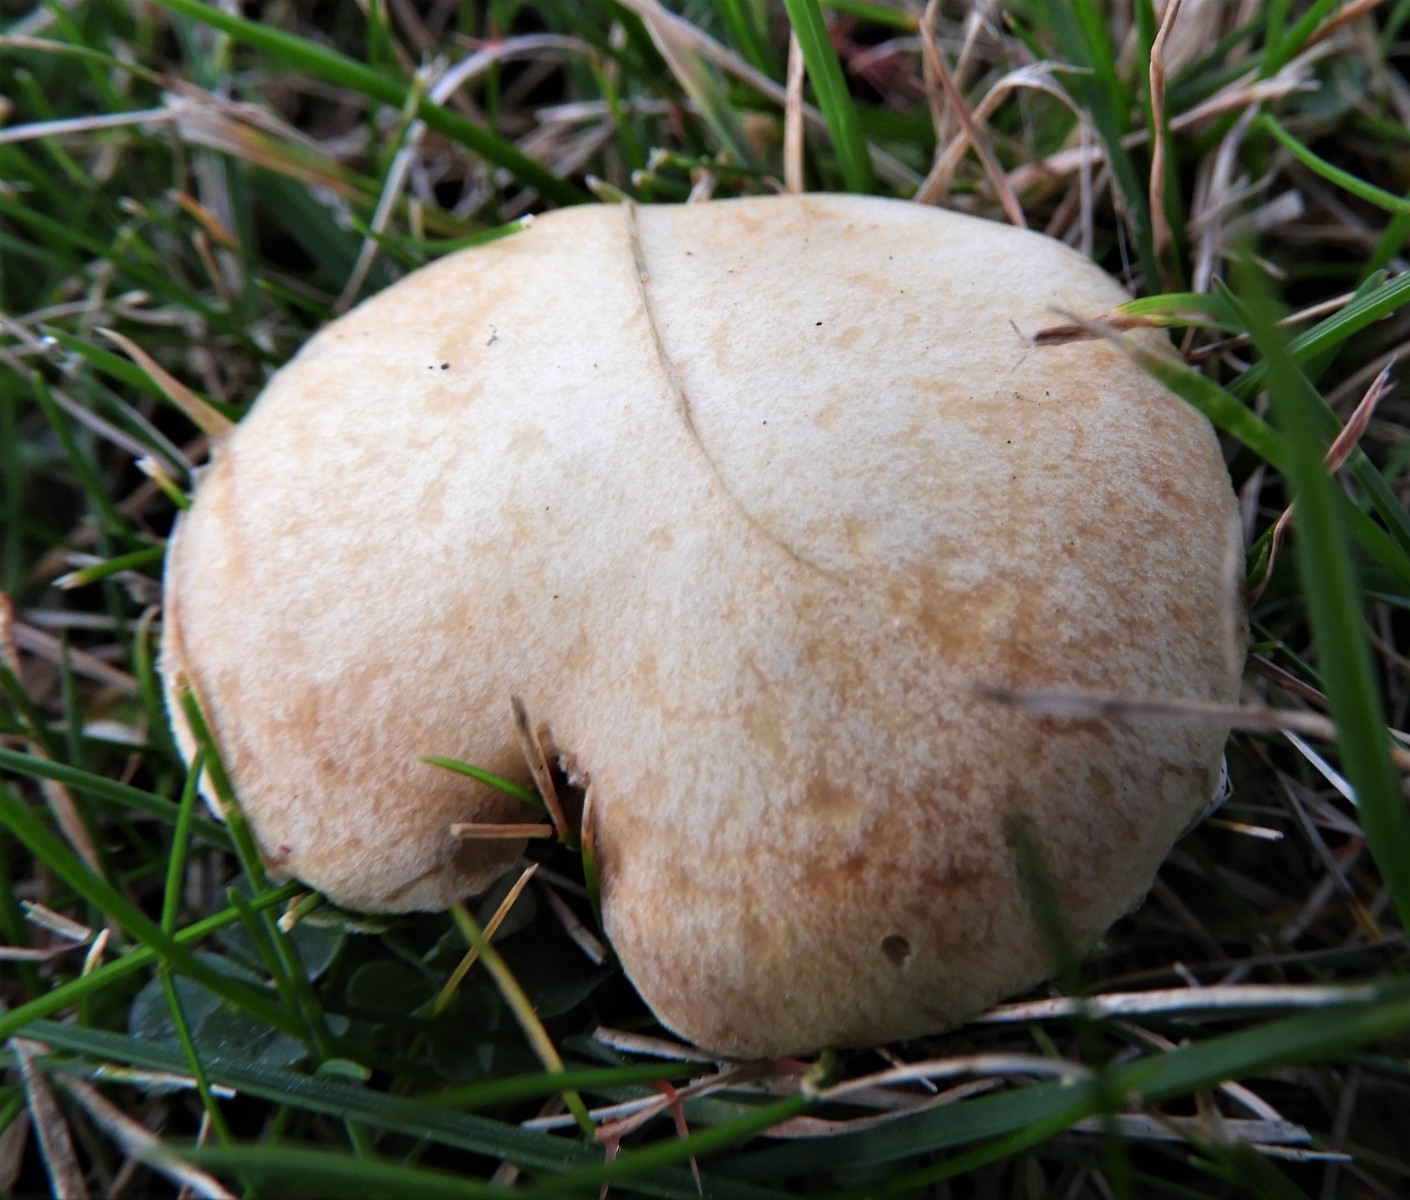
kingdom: Fungi
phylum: Basidiomycota
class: Agaricomycetes
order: Agaricales
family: Hymenogastraceae
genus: Psilocybe
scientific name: Psilocybe coronilla
